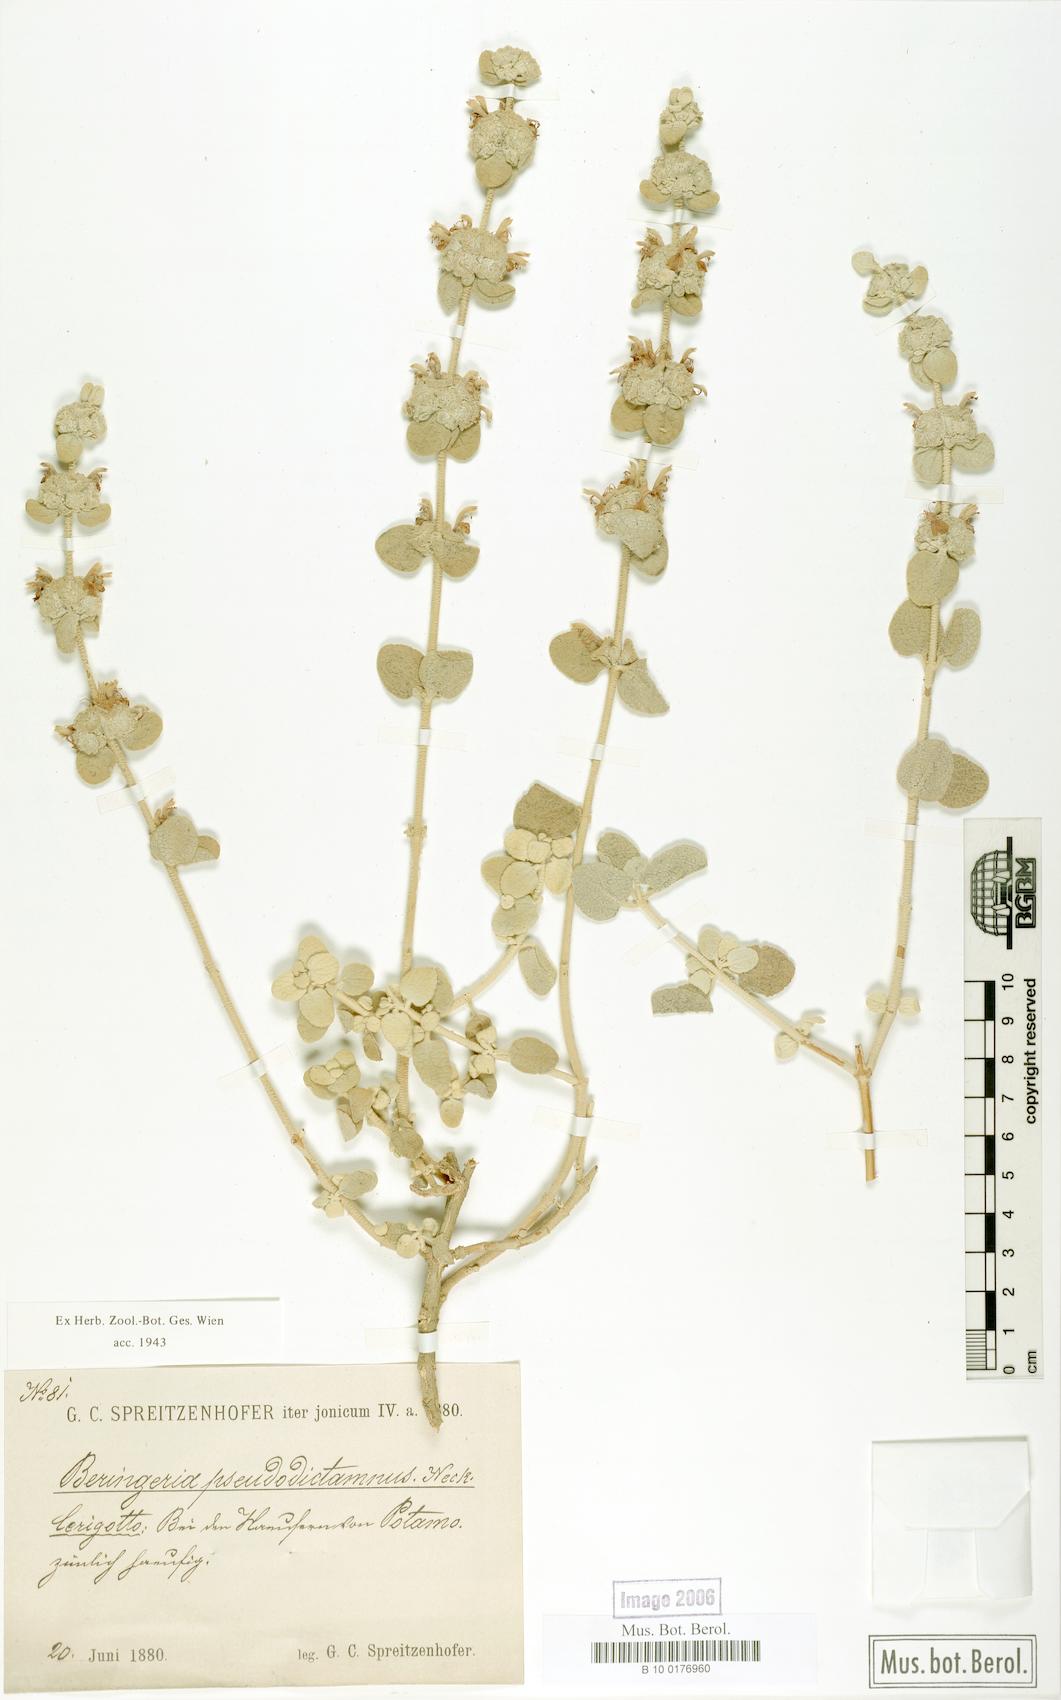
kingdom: Plantae
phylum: Tracheophyta
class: Magnoliopsida
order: Lamiales
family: Lamiaceae
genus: Pseudodictamnus
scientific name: Pseudodictamnus mediterraneus
